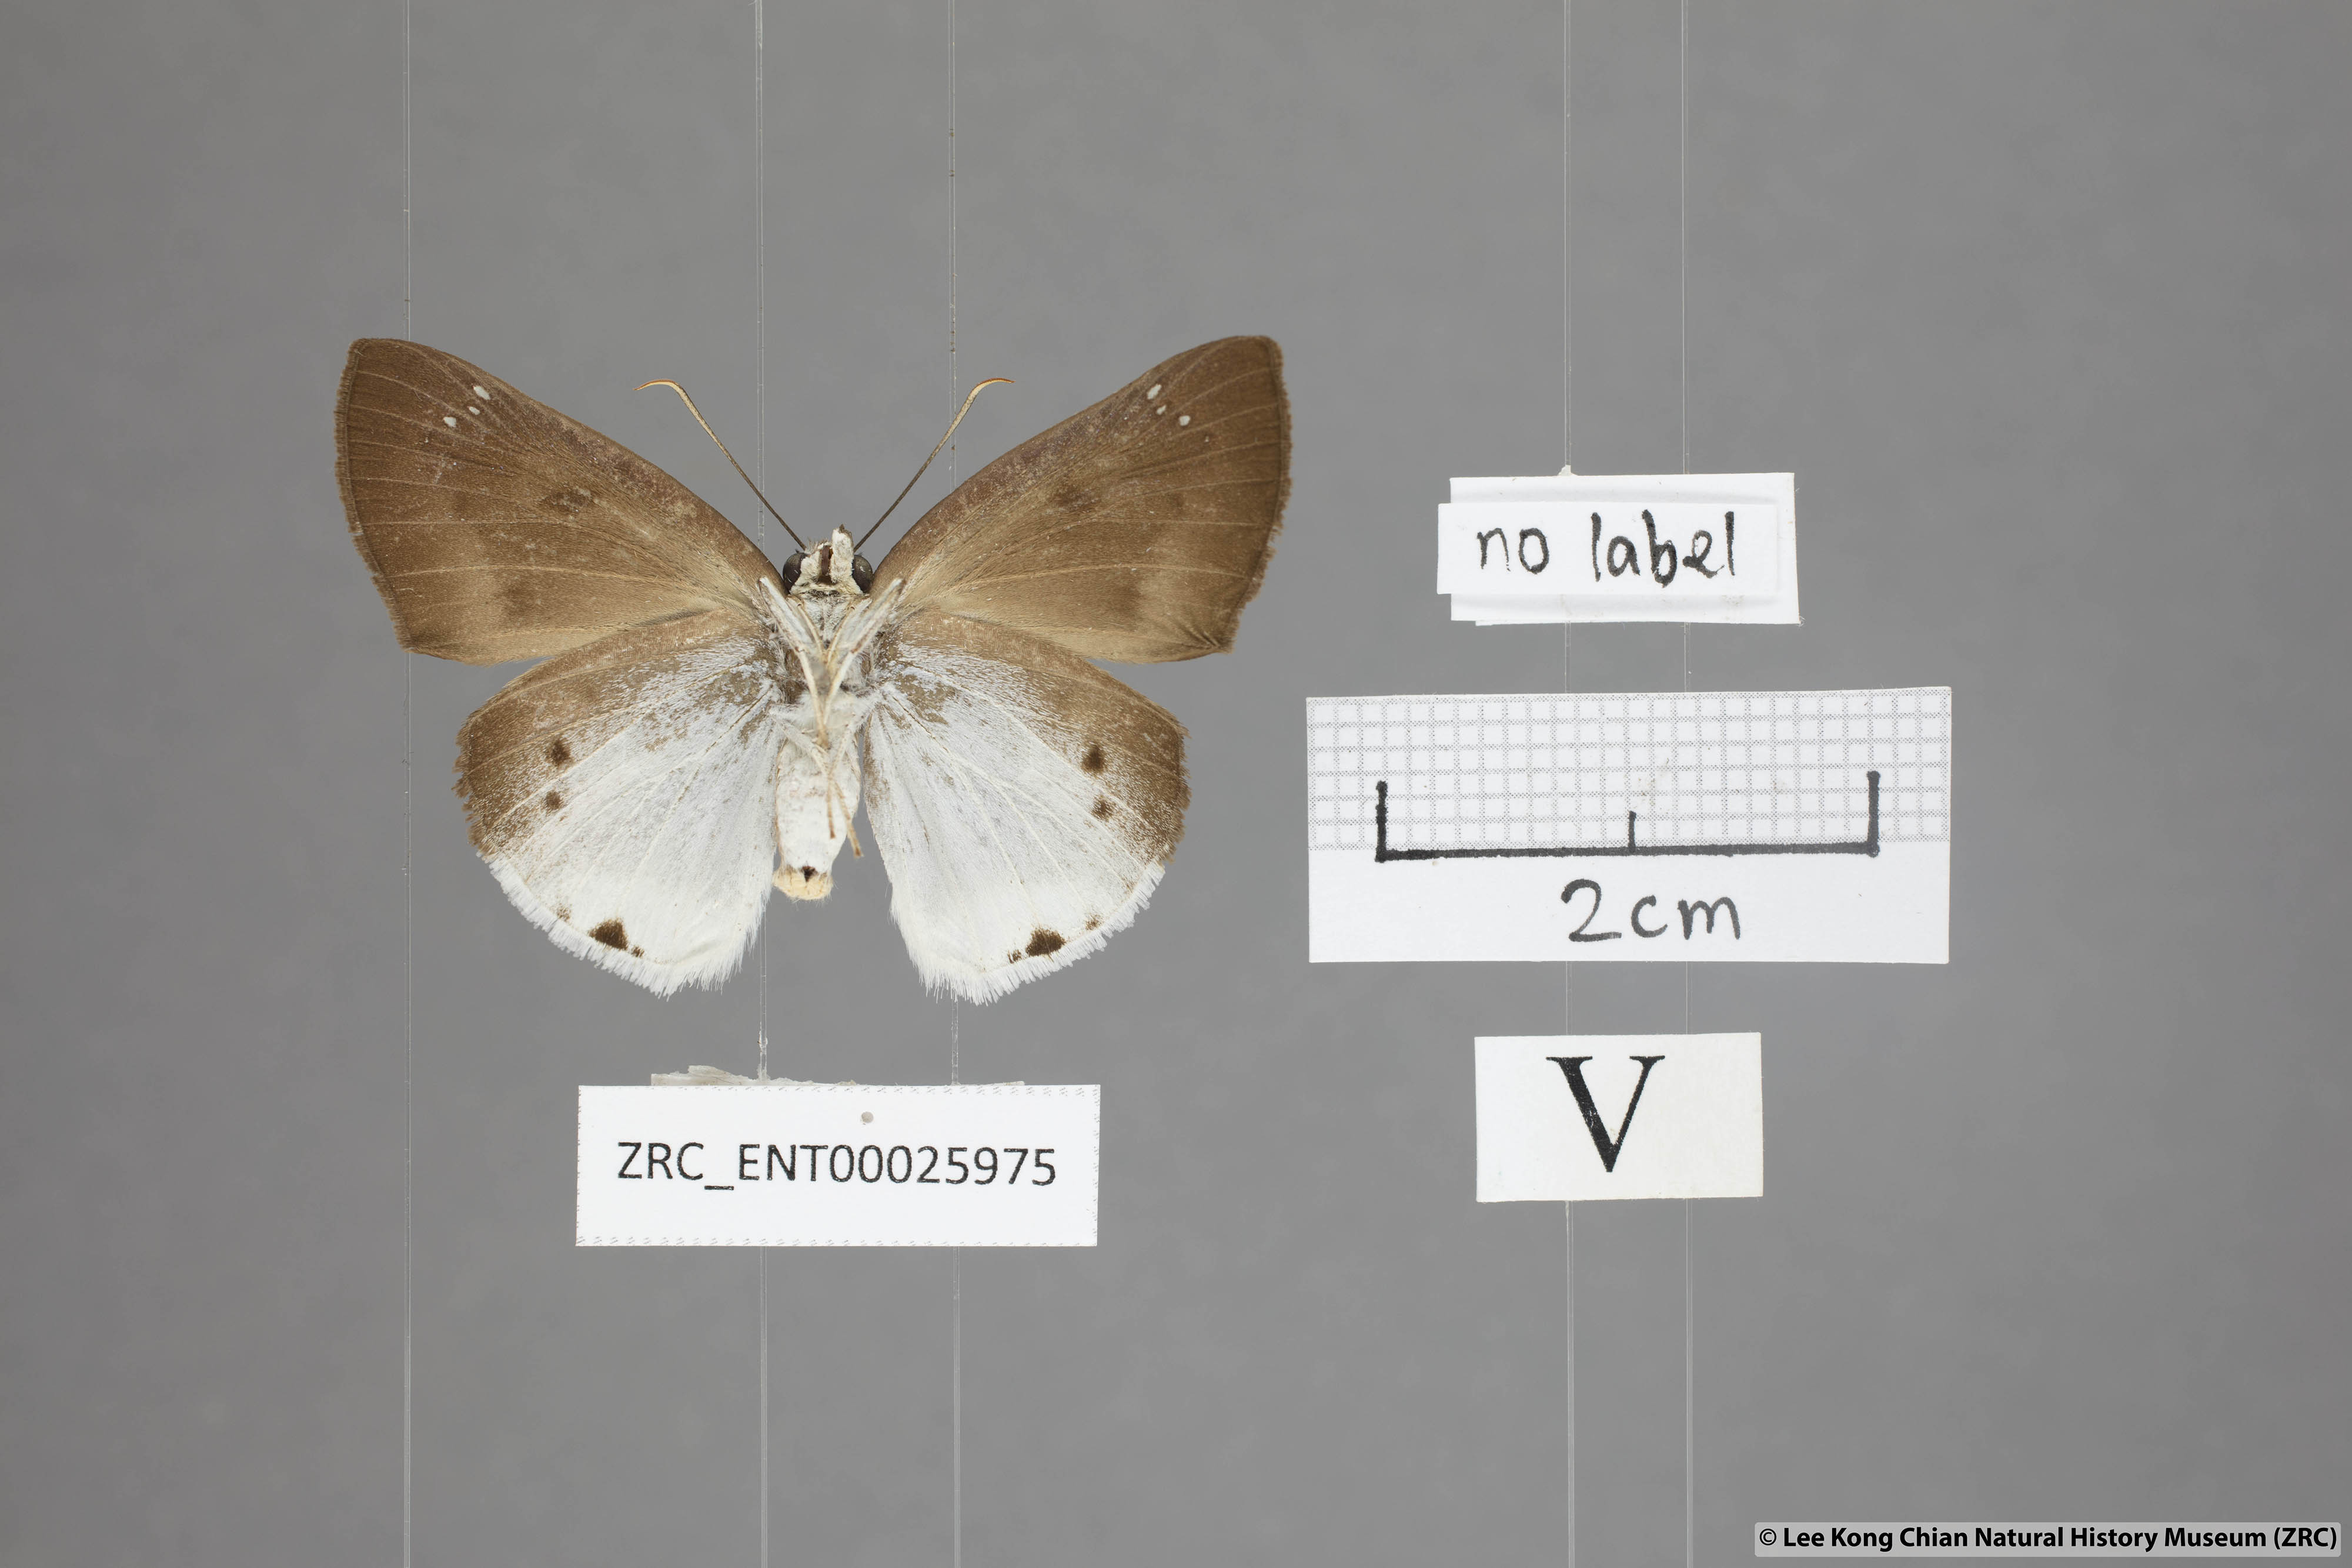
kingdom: Animalia
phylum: Arthropoda
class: Insecta
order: Lepidoptera
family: Hesperiidae
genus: Tagiades
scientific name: Tagiades gana
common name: Suffused snow flat
